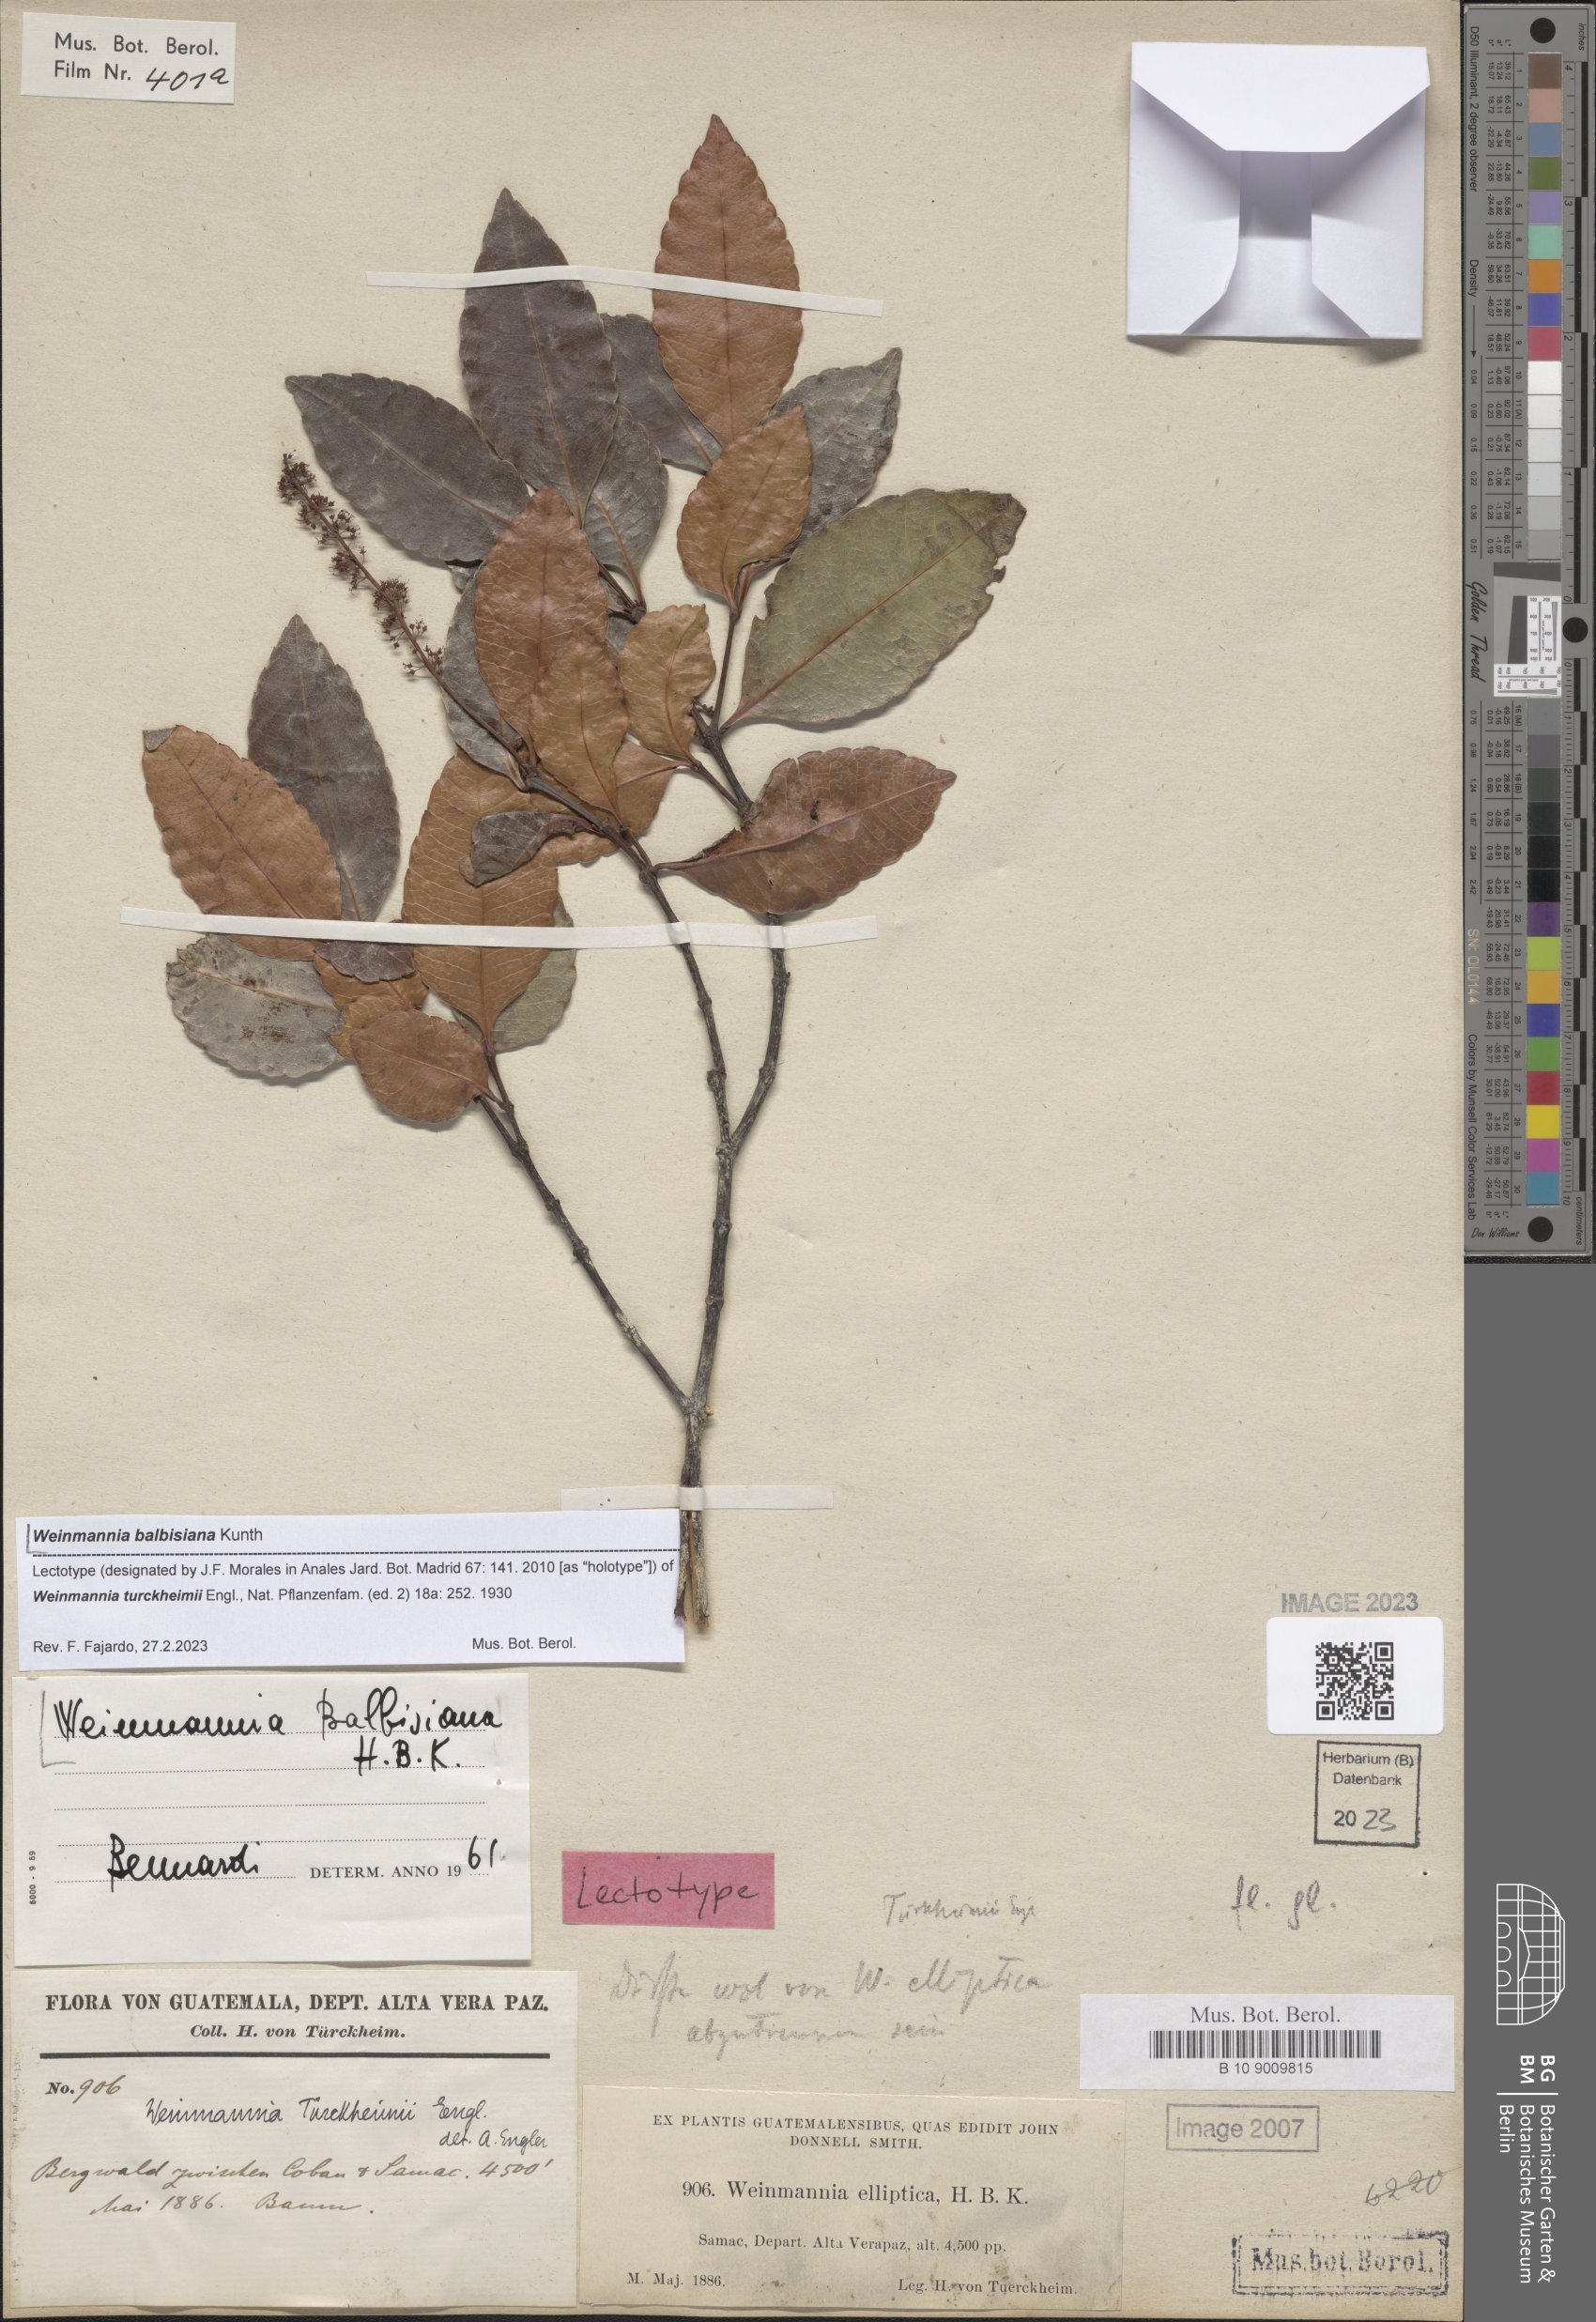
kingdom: Plantae
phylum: Tracheophyta
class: Magnoliopsida
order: Oxalidales
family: Cunoniaceae
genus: Weinmannia
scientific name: Weinmannia balbisana
